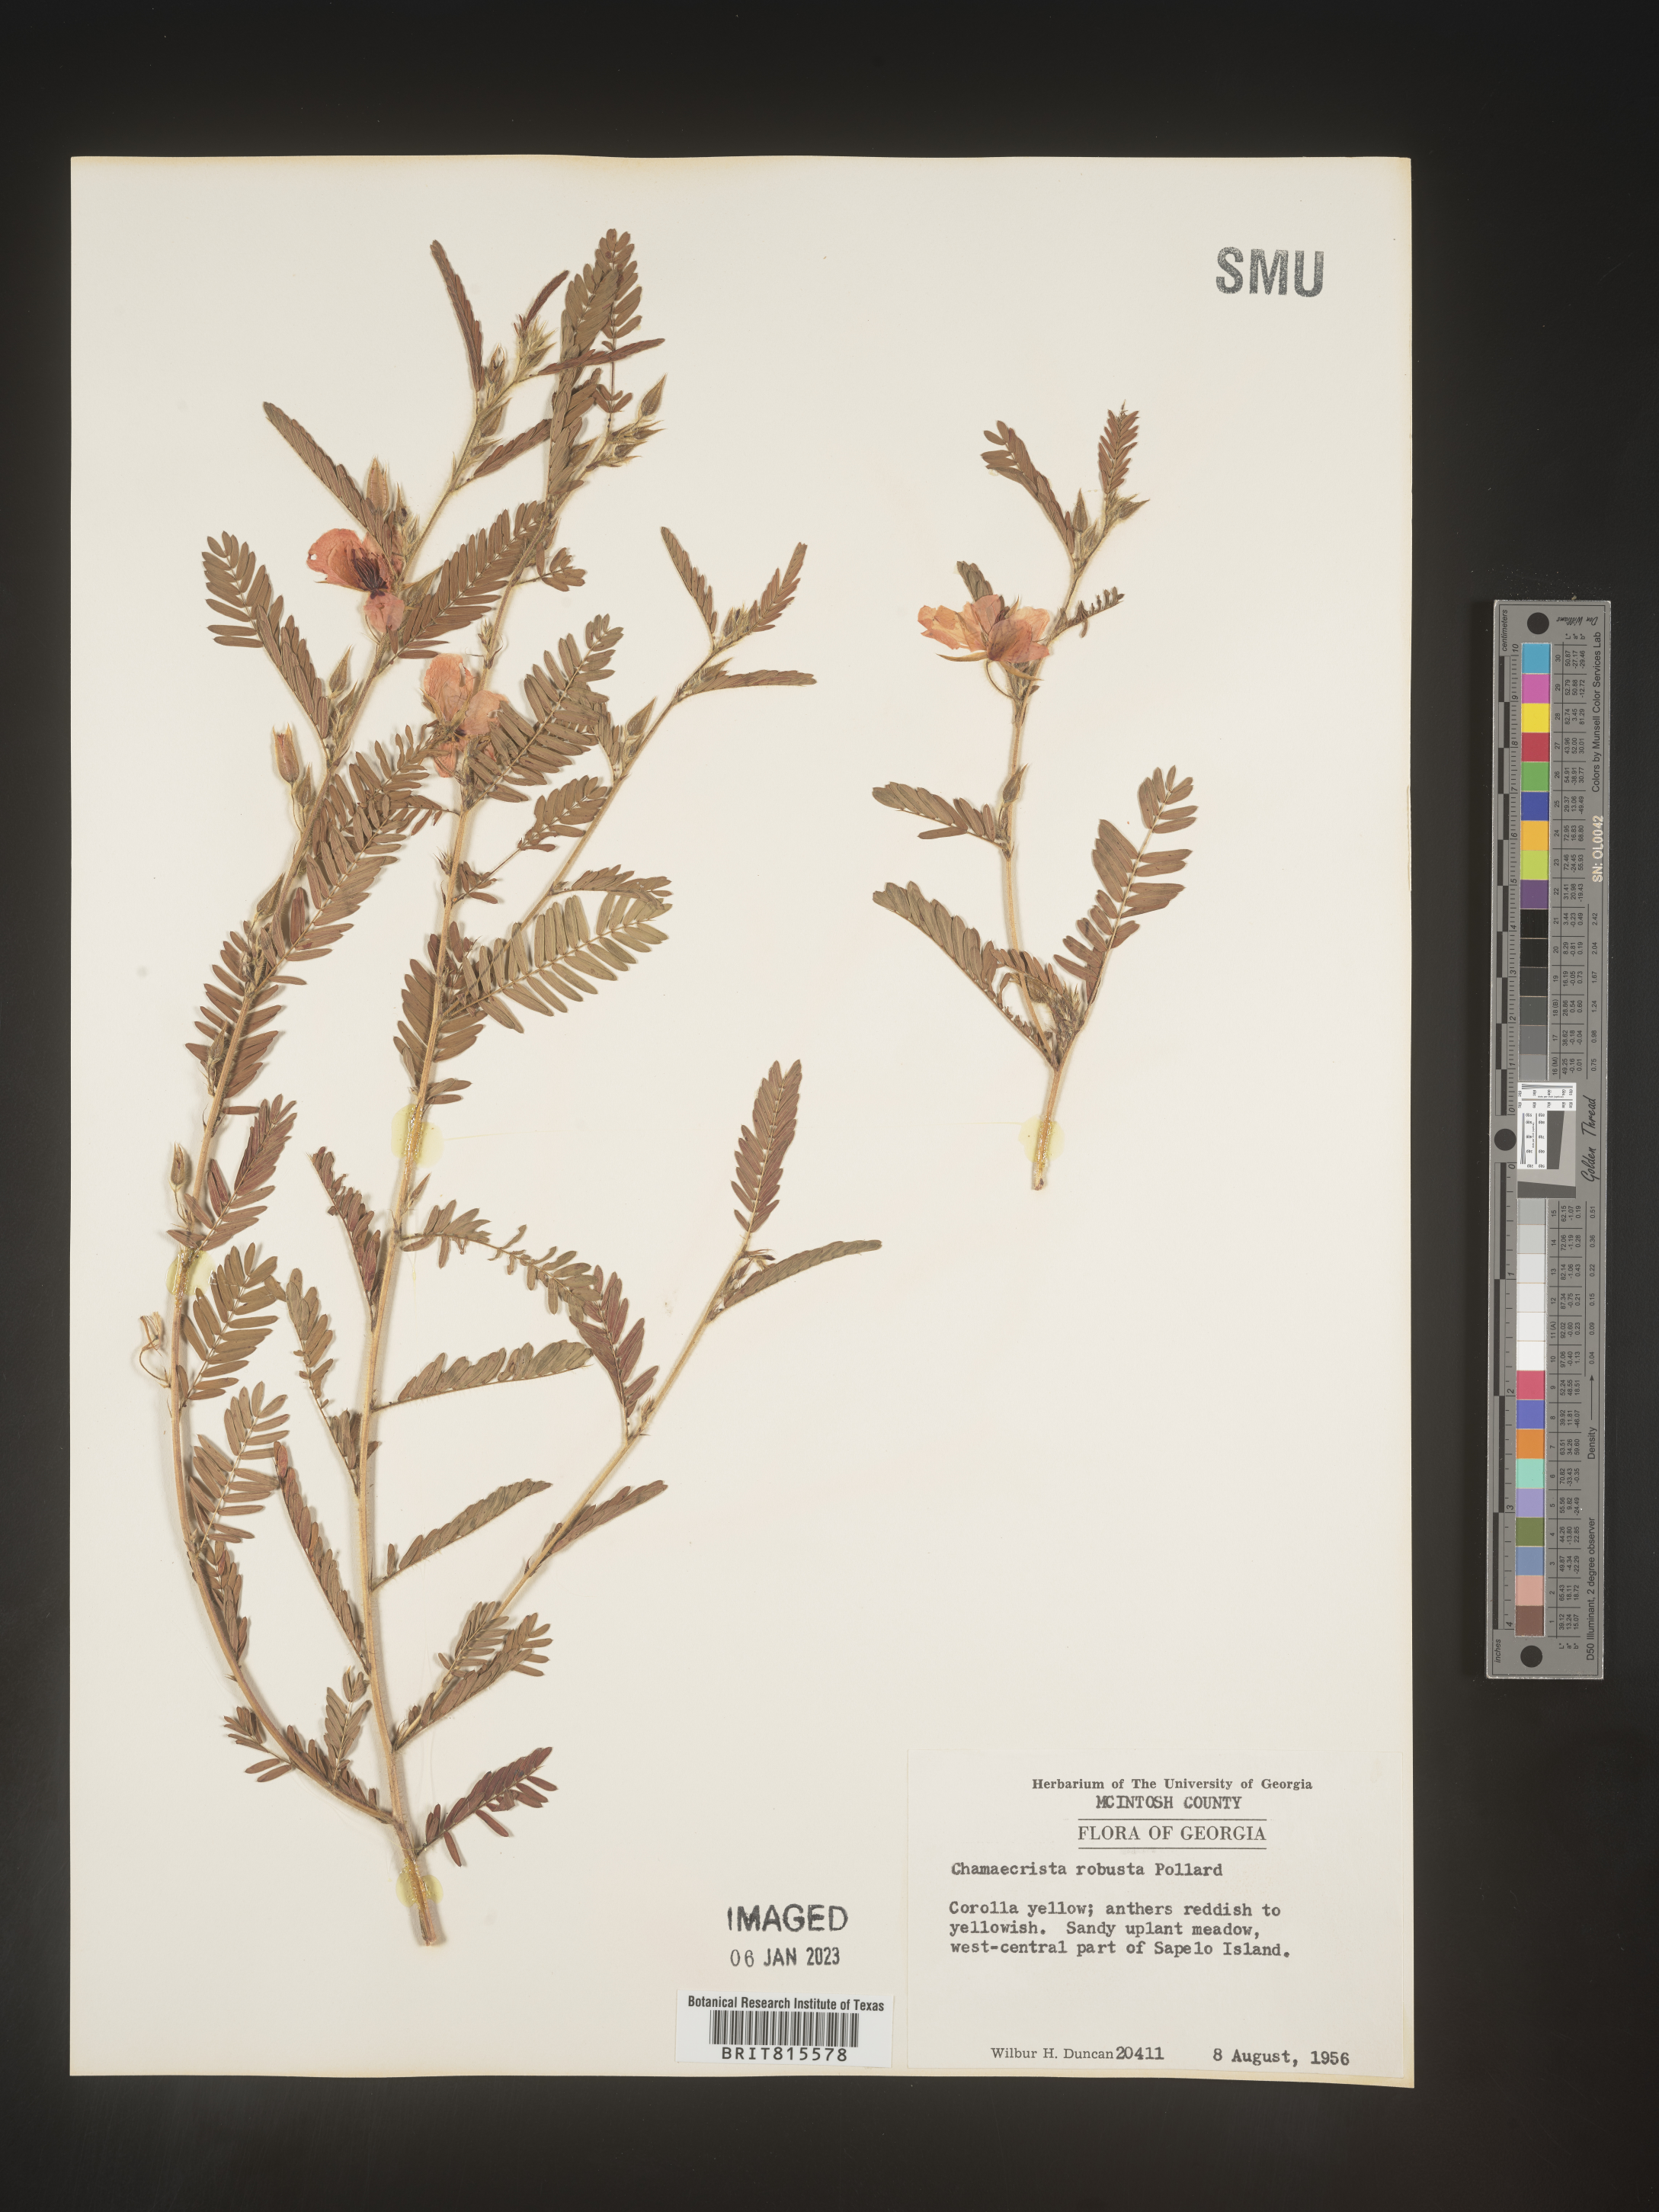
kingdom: Plantae
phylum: Tracheophyta
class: Magnoliopsida
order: Fabales
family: Fabaceae
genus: Cassia
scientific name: Cassia
